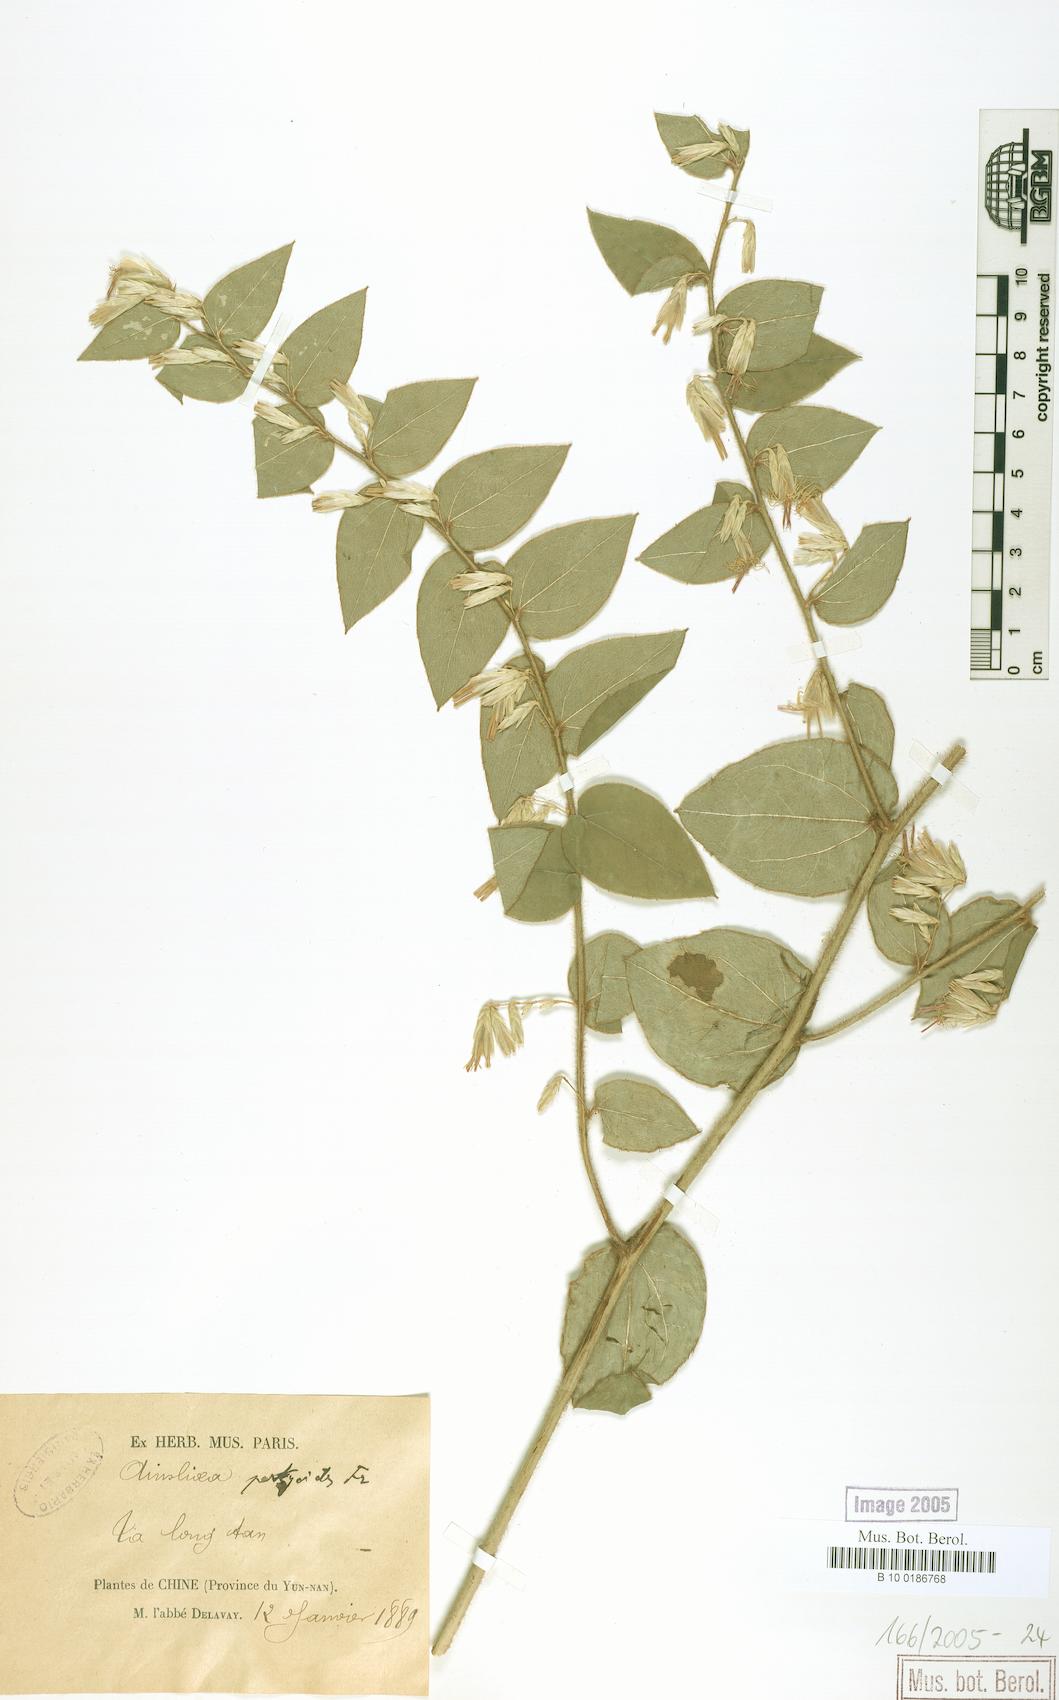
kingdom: Plantae
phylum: Tracheophyta
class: Magnoliopsida
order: Asterales
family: Asteraceae
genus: Ainsliaea
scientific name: Ainsliaea pertyoides
